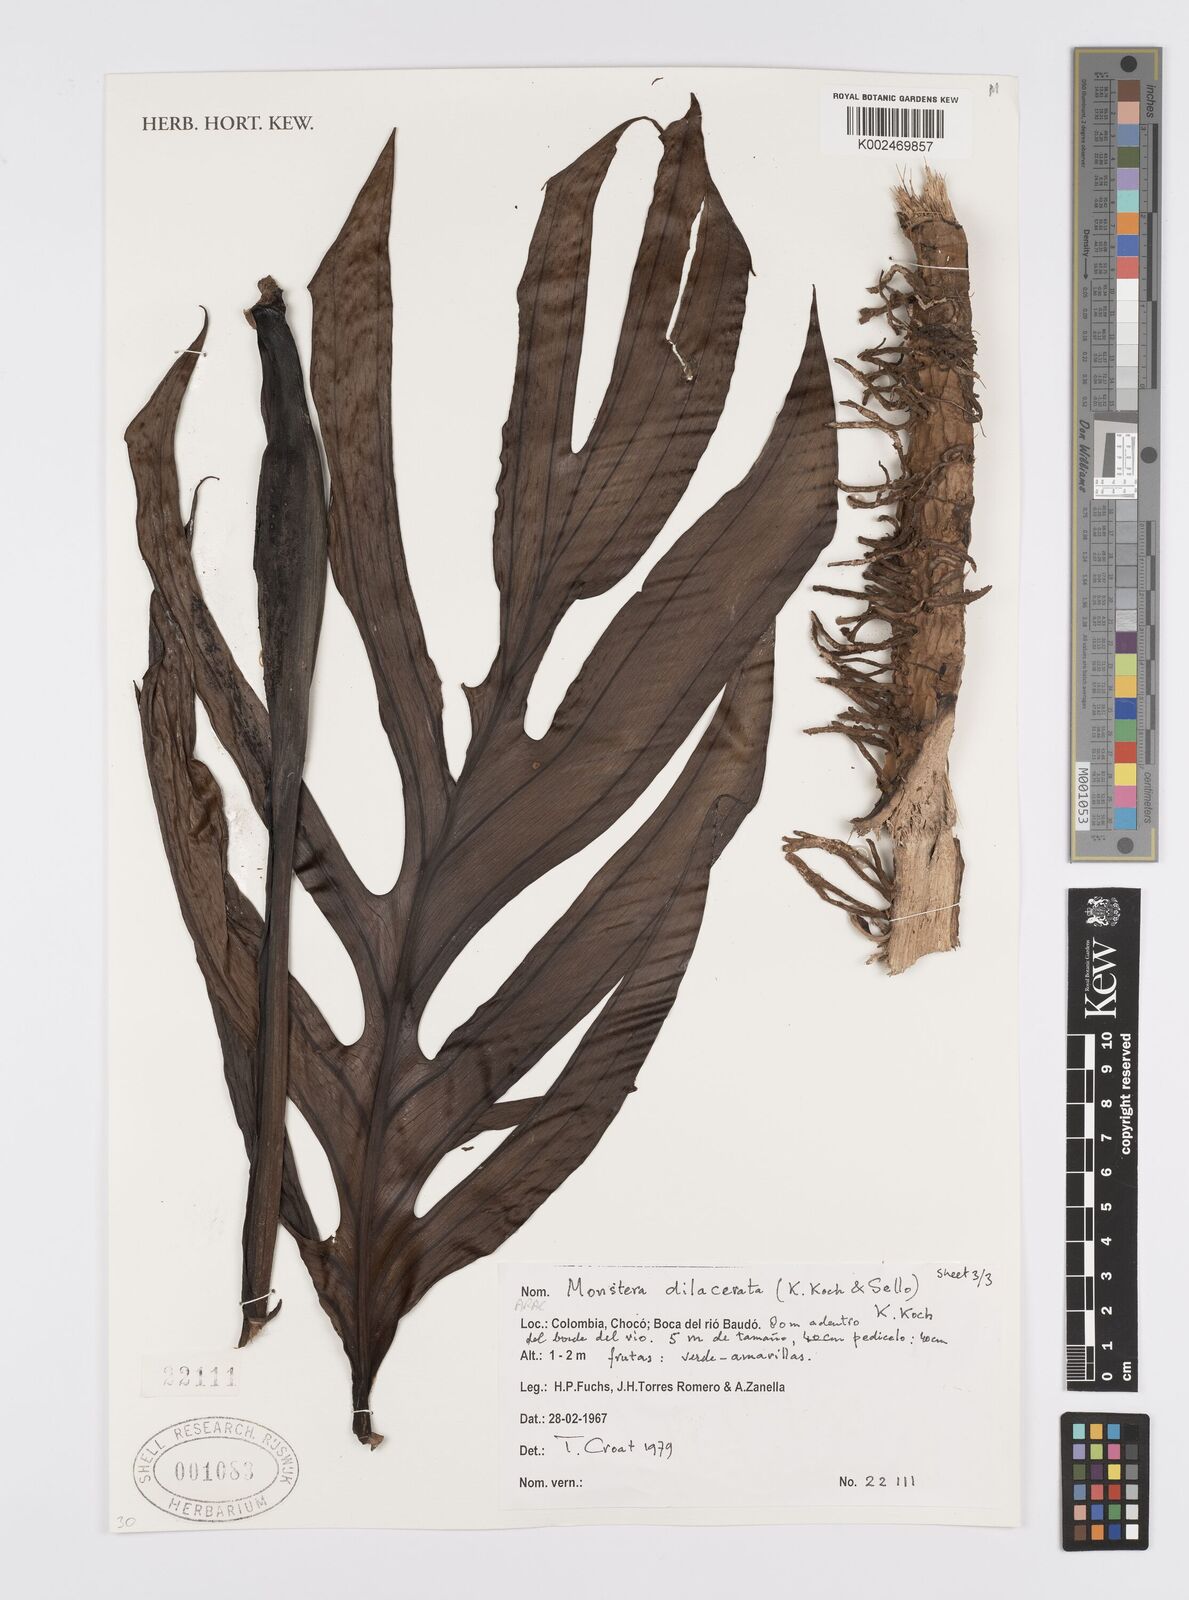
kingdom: Plantae
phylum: Tracheophyta
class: Liliopsida
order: Alismatales
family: Araceae
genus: Monstera
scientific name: Monstera pinnatipartita
